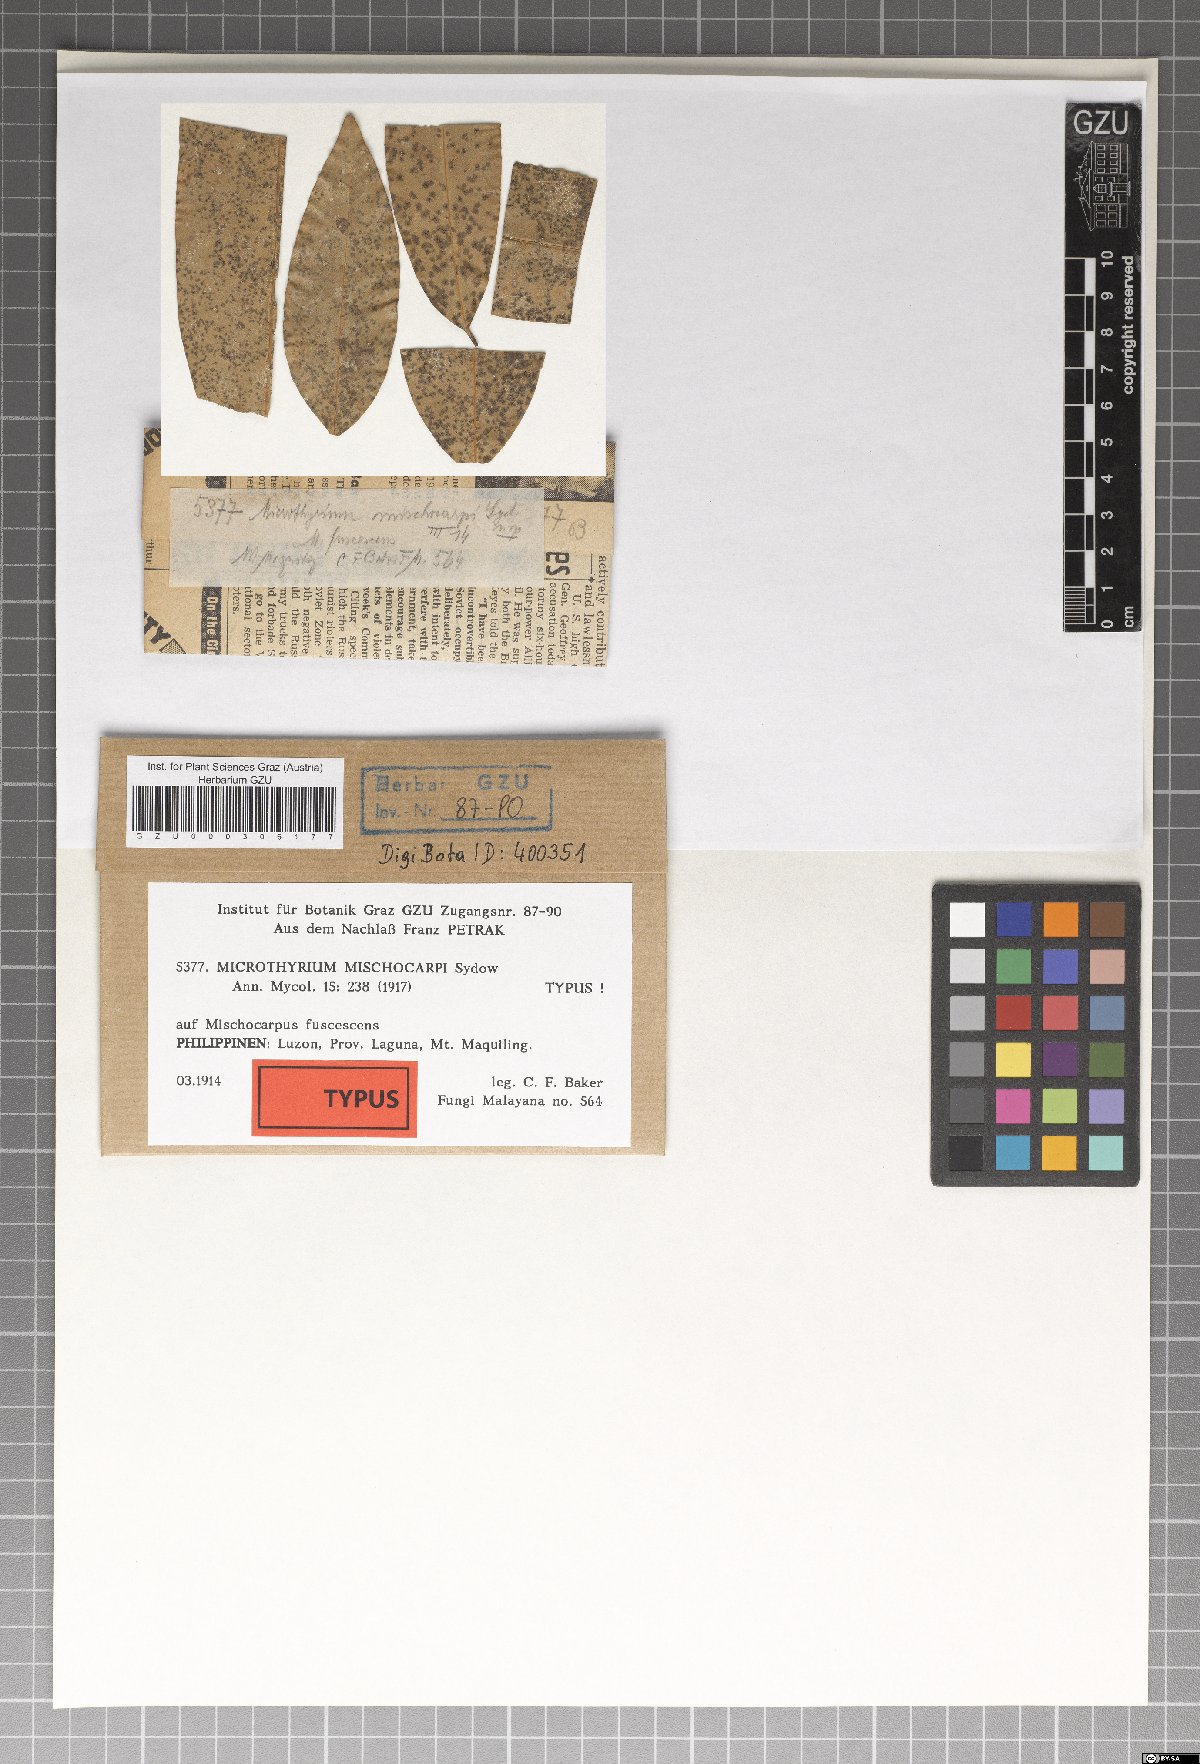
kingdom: Fungi
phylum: Ascomycota
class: Dothideomycetes
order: Microthyriales
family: Microthyriaceae
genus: Microthyrium
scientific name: Microthyrium mischocarpi
